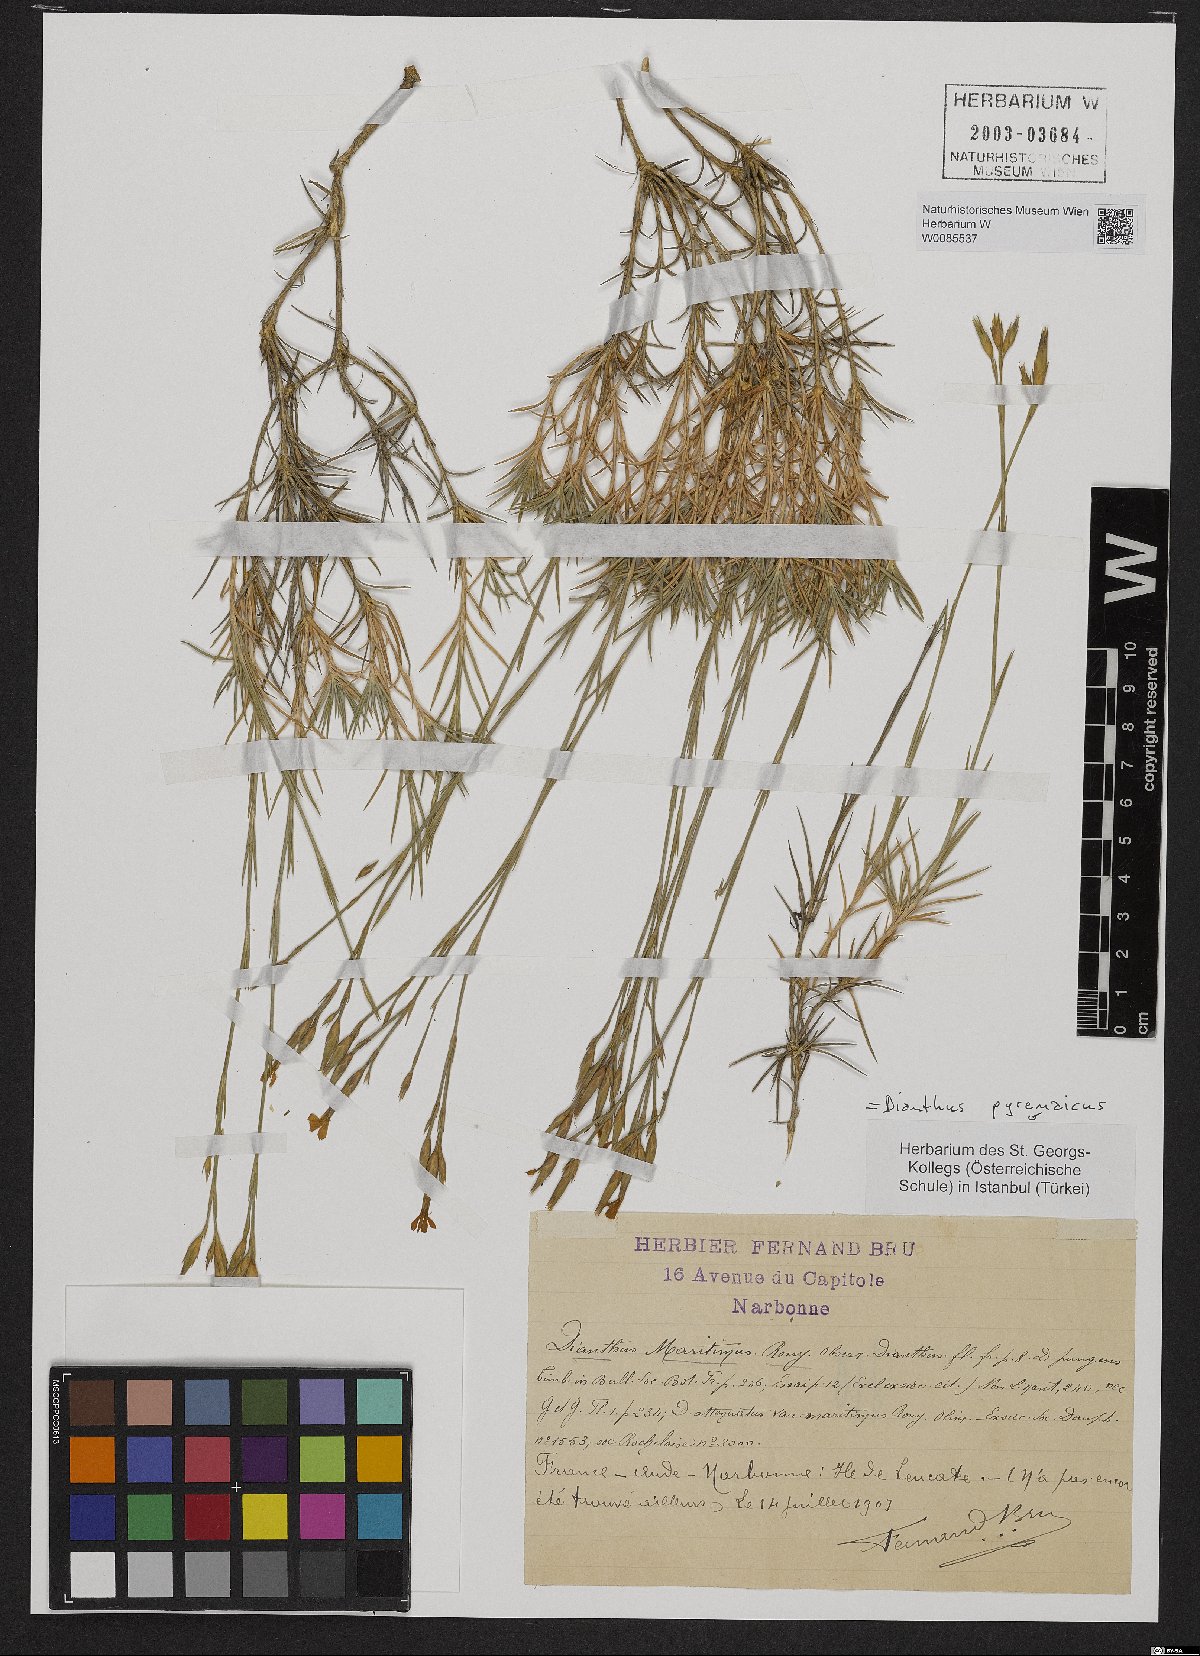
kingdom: Plantae
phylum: Tracheophyta
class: Magnoliopsida
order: Caryophyllales
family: Caryophyllaceae
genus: Dianthus
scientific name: Dianthus pyrenaicus
